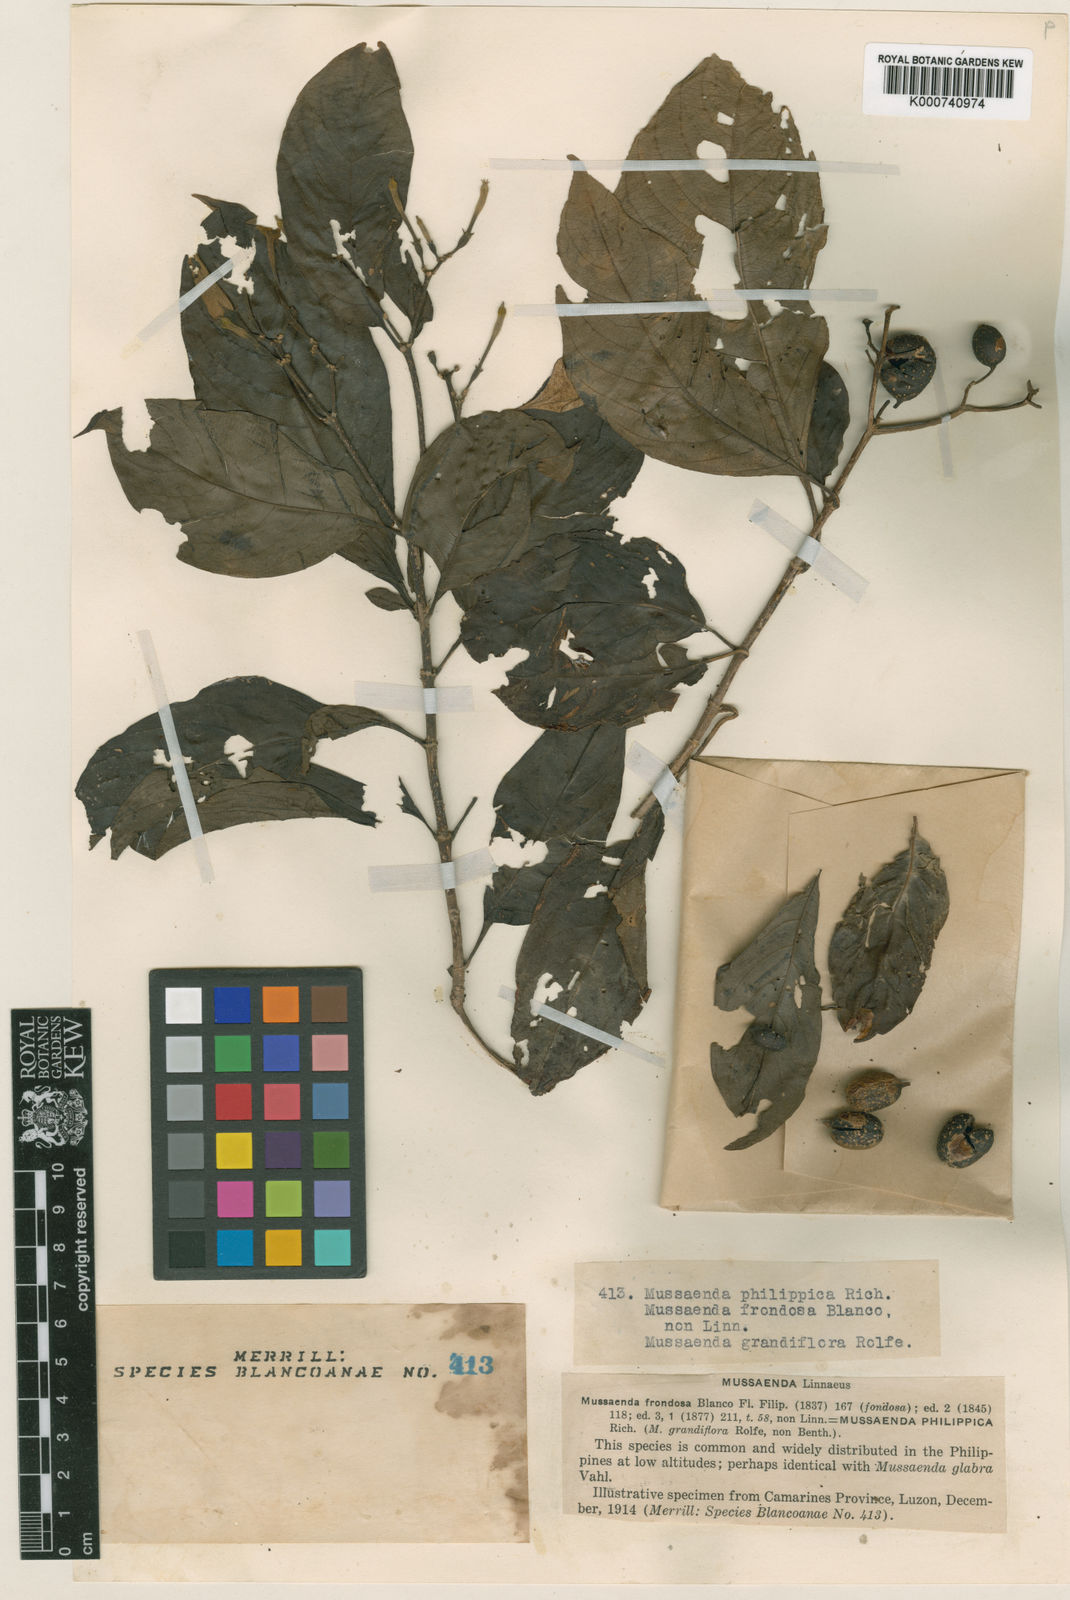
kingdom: Plantae
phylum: Tracheophyta
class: Magnoliopsida
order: Gentianales
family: Rubiaceae
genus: Mussaenda
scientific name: Mussaenda philippica
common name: Philippine mussaenda
